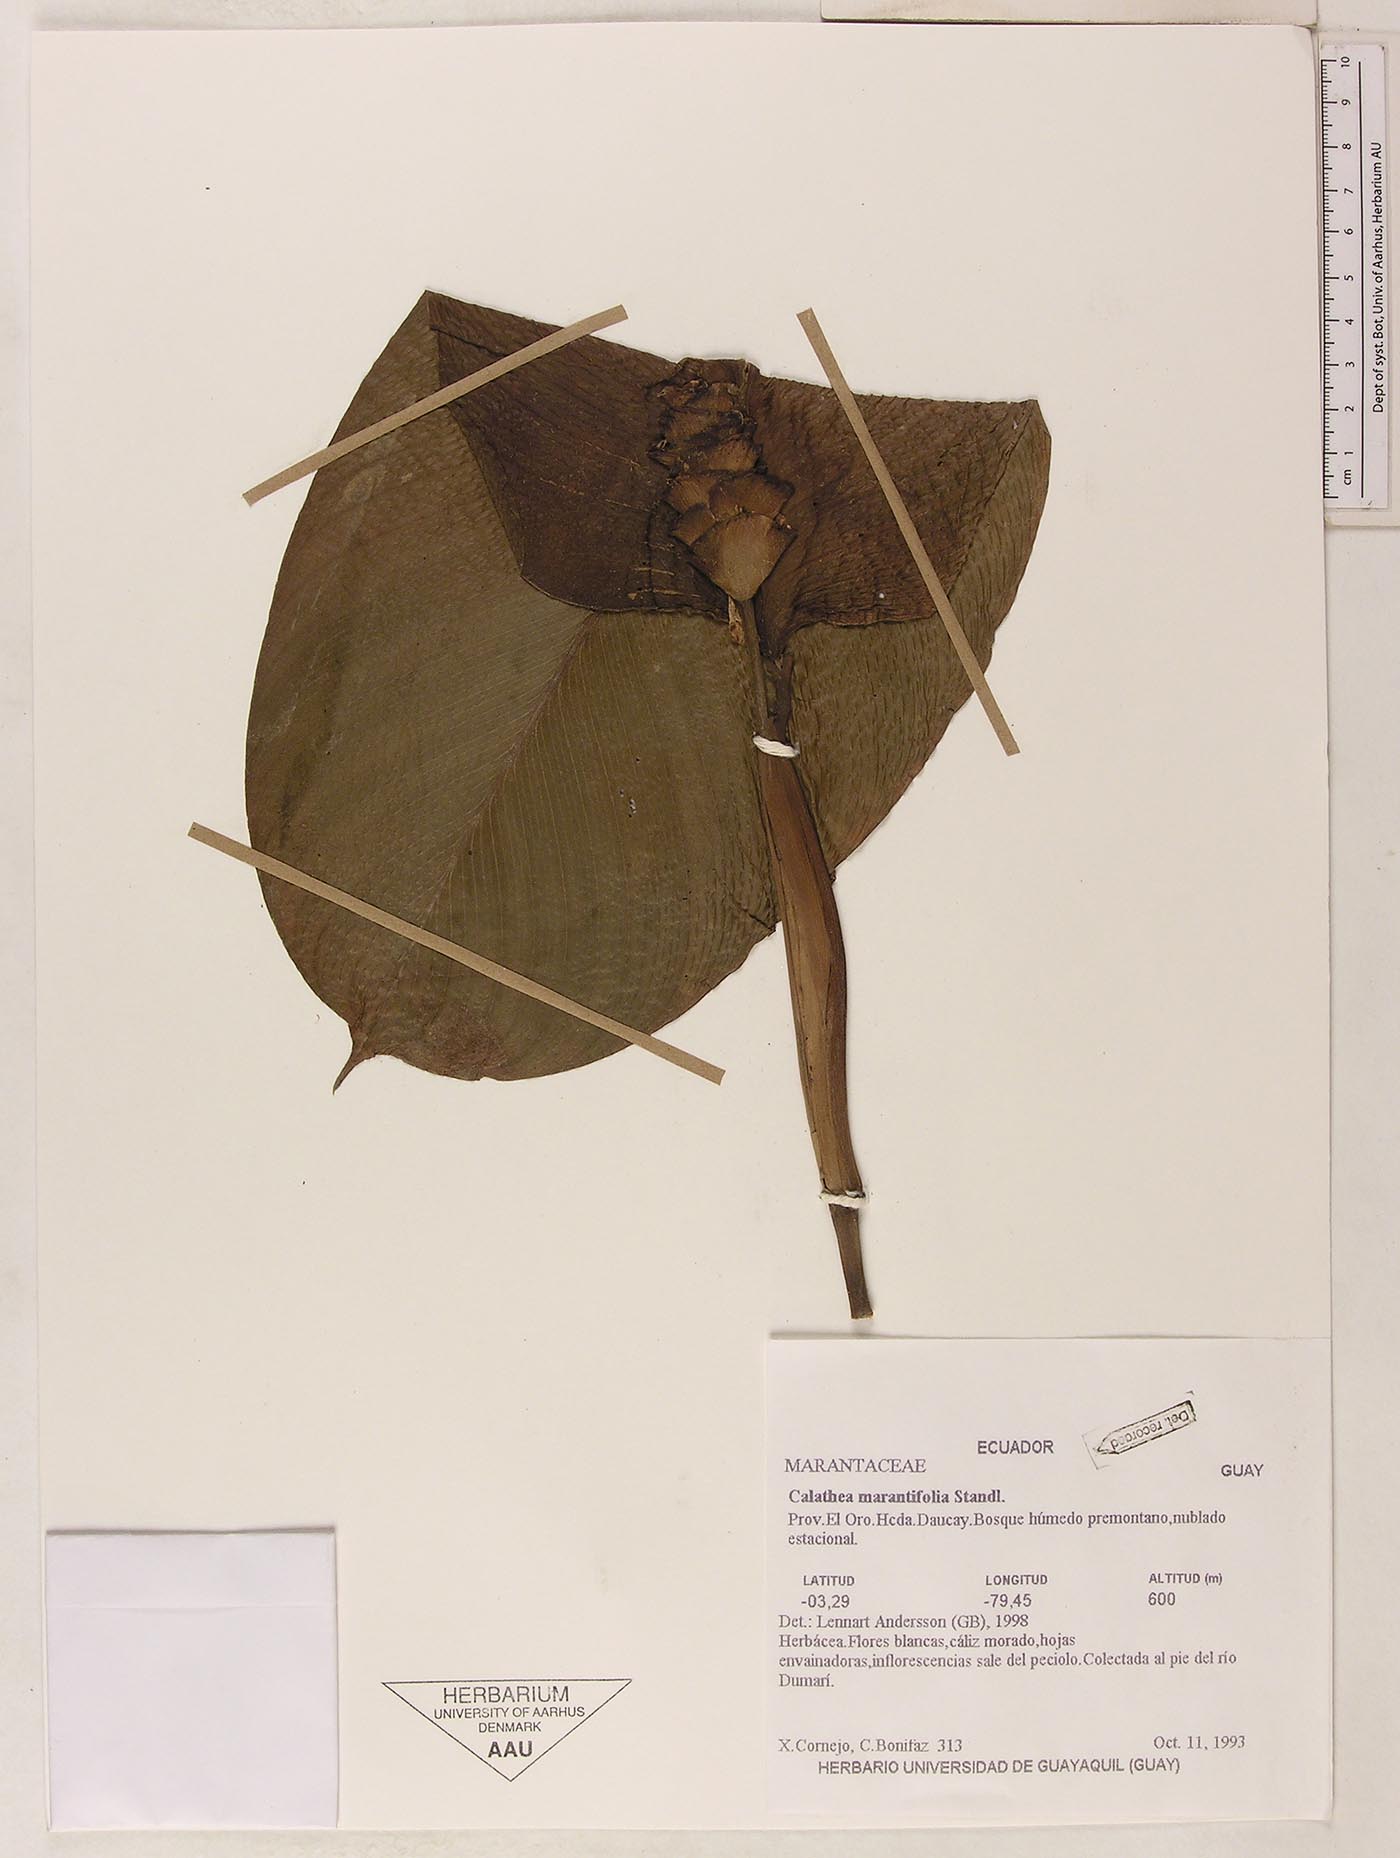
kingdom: Plantae
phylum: Tracheophyta
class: Liliopsida
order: Zingiberales
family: Marantaceae
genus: Goeppertia
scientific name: Goeppertia marantifolia
